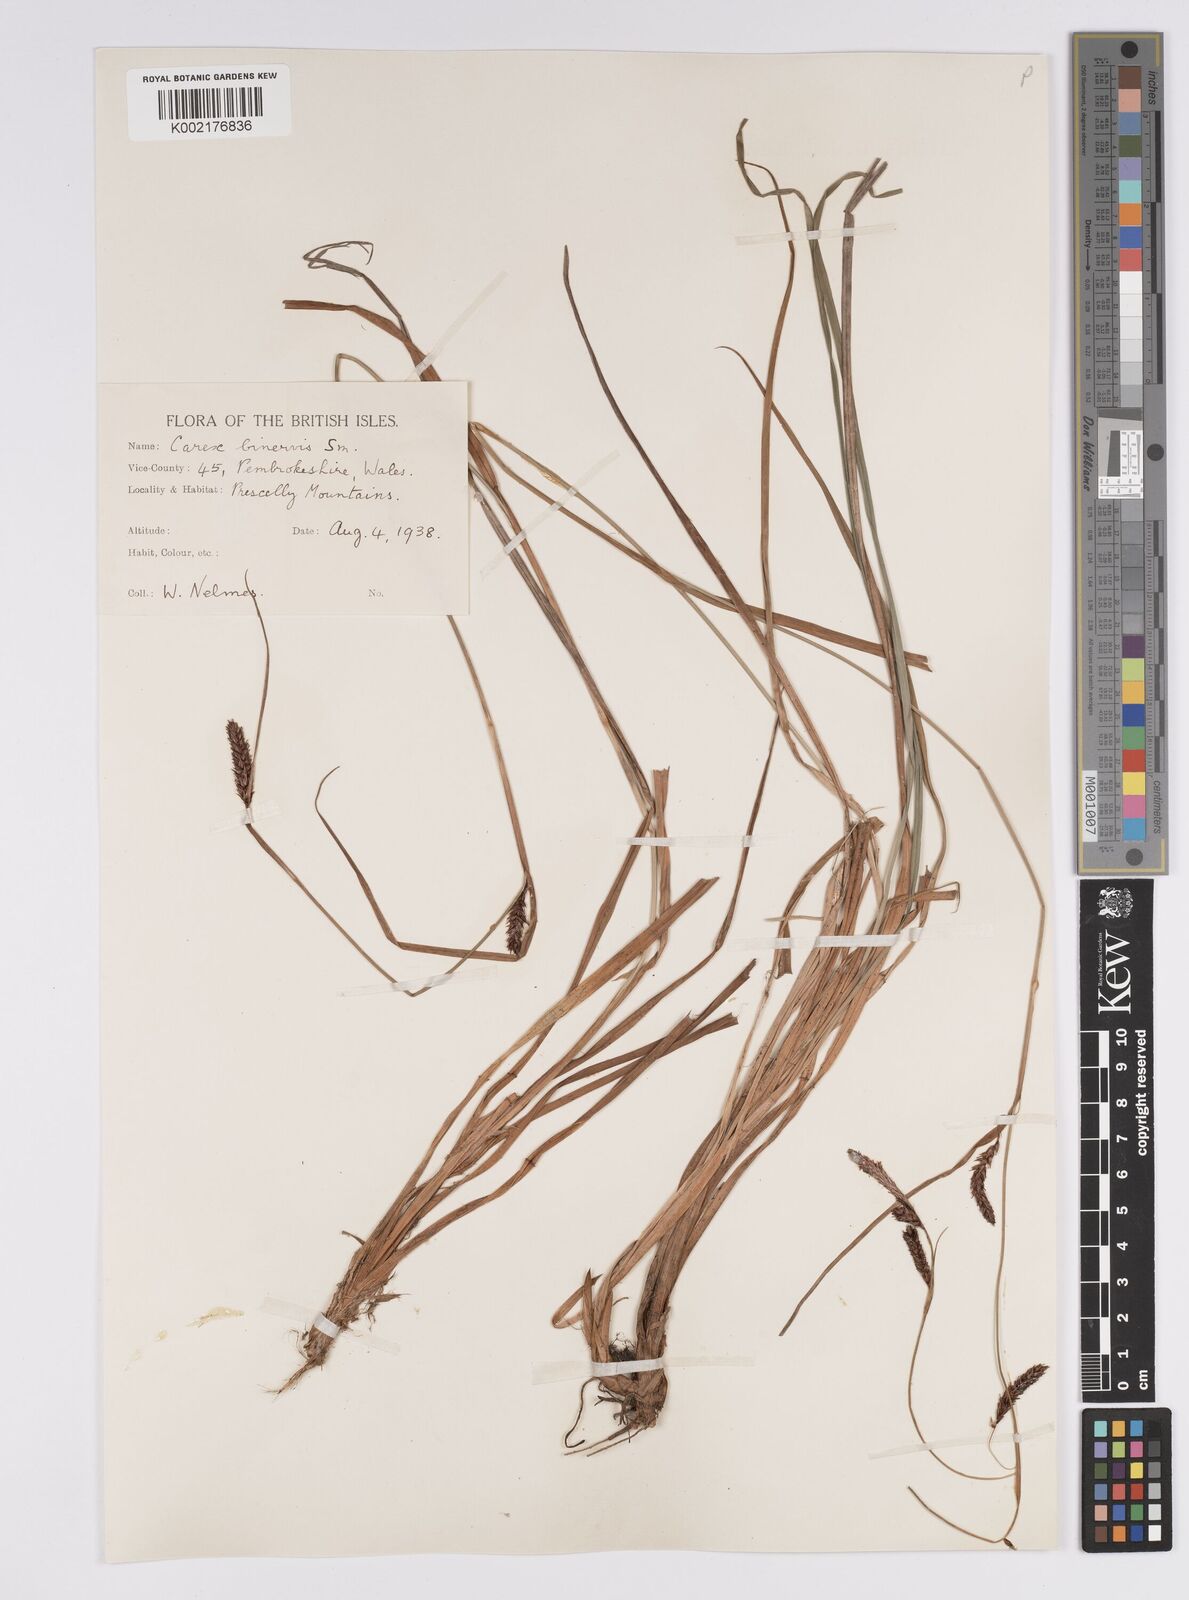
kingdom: Plantae
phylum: Tracheophyta
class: Liliopsida
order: Poales
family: Cyperaceae
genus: Carex
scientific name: Carex binervis
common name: Green-ribbed sedge
